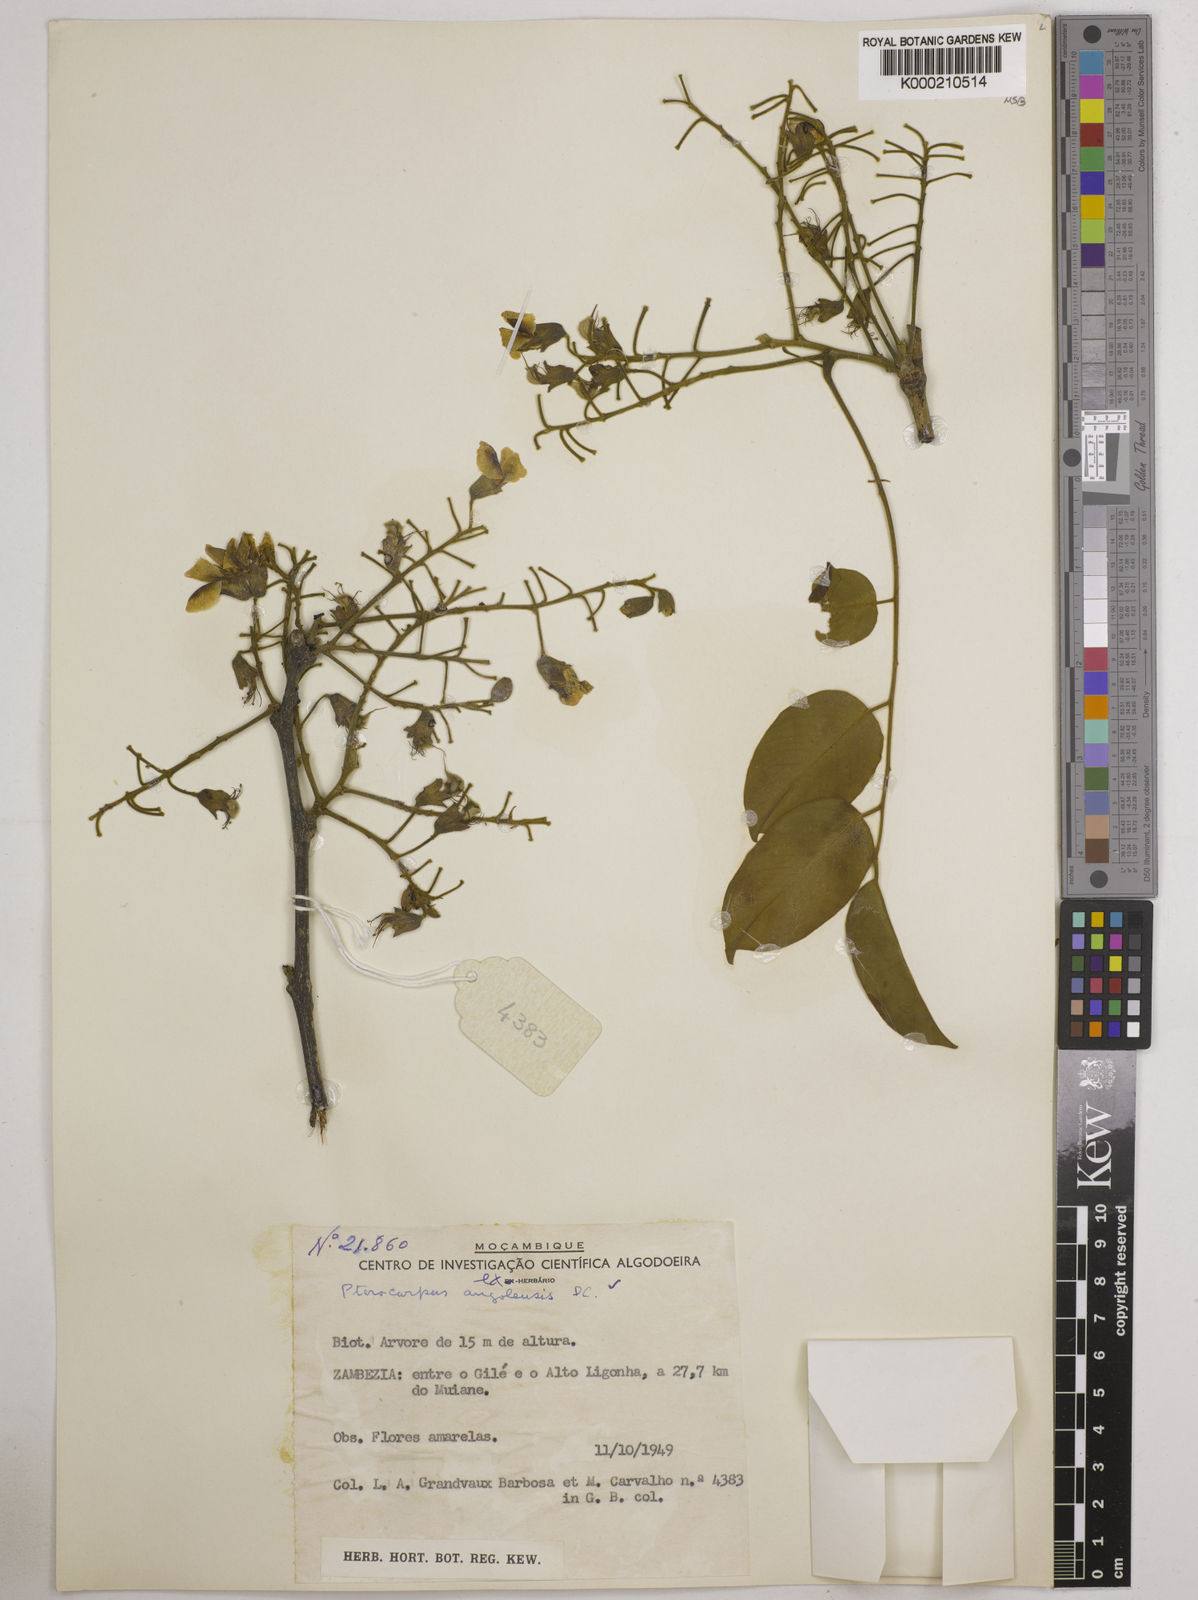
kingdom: Plantae
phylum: Tracheophyta
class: Magnoliopsida
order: Fabales
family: Fabaceae
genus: Pterocarpus
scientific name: Pterocarpus angolensis
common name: Bloodwood tree
